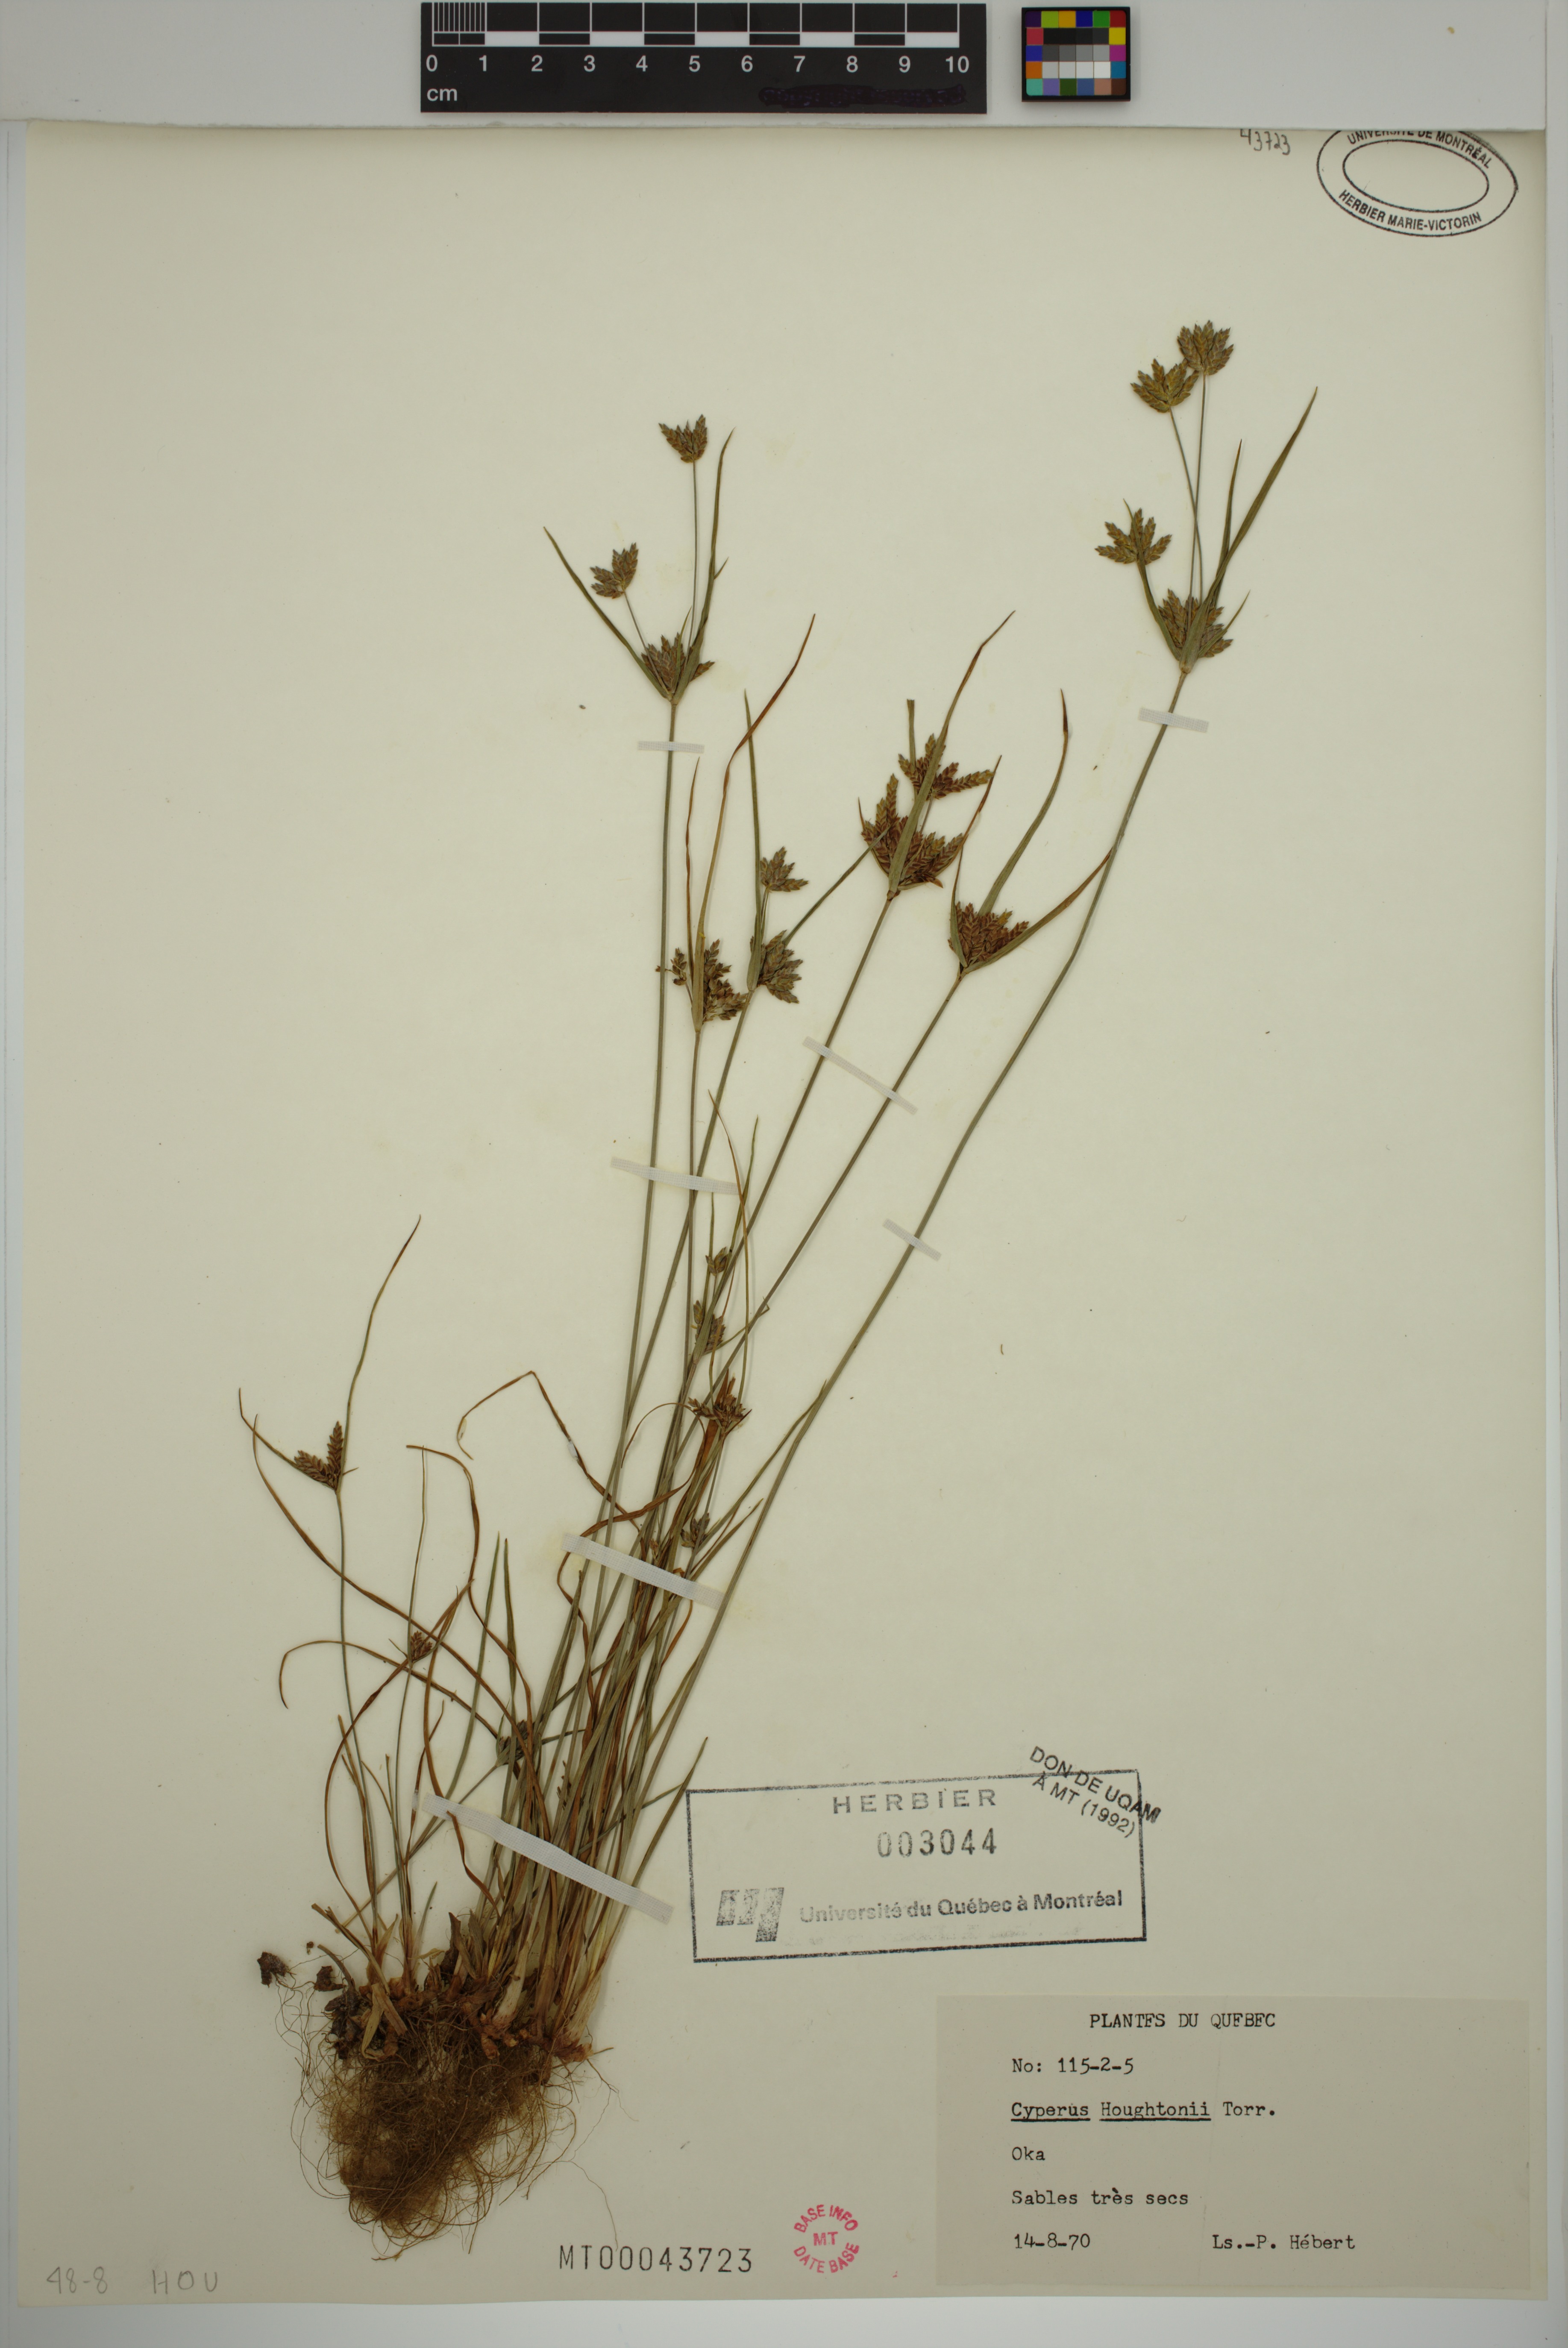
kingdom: Plantae
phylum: Tracheophyta
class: Liliopsida
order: Poales
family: Cyperaceae
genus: Cyperus
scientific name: Cyperus houghtonii
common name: Houghton's cyperus
